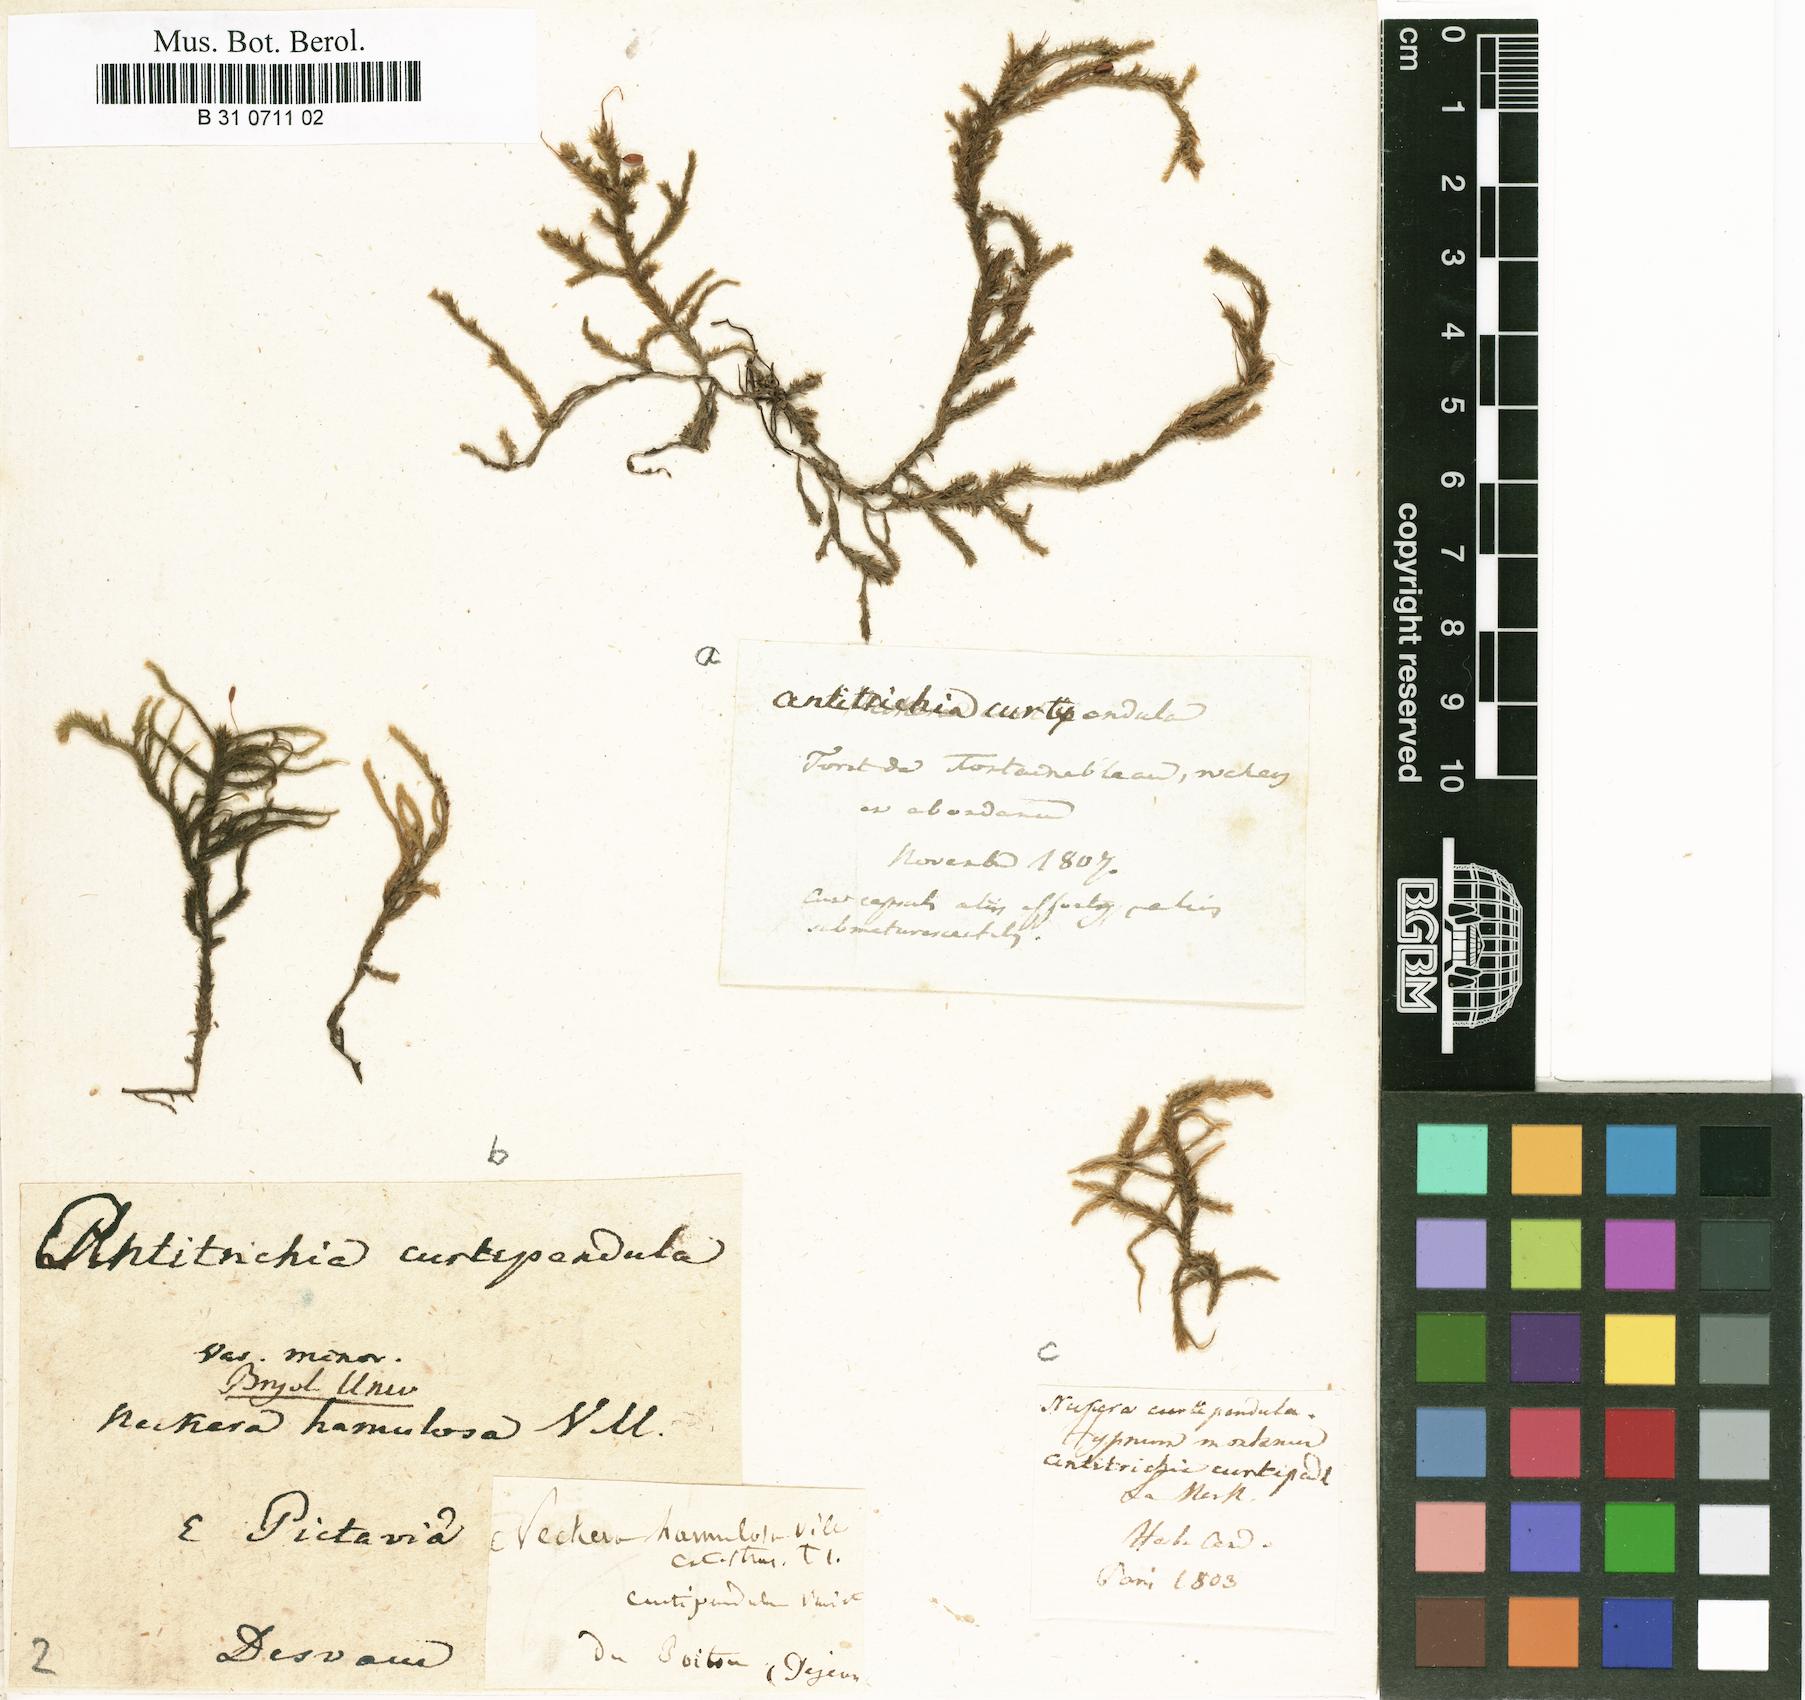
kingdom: Plantae
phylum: Bryophyta
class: Bryopsida
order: Hypnales
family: Antitrichiaceae
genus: Antitrichia
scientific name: Antitrichia curtipendula
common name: Pendulous wing-moss
